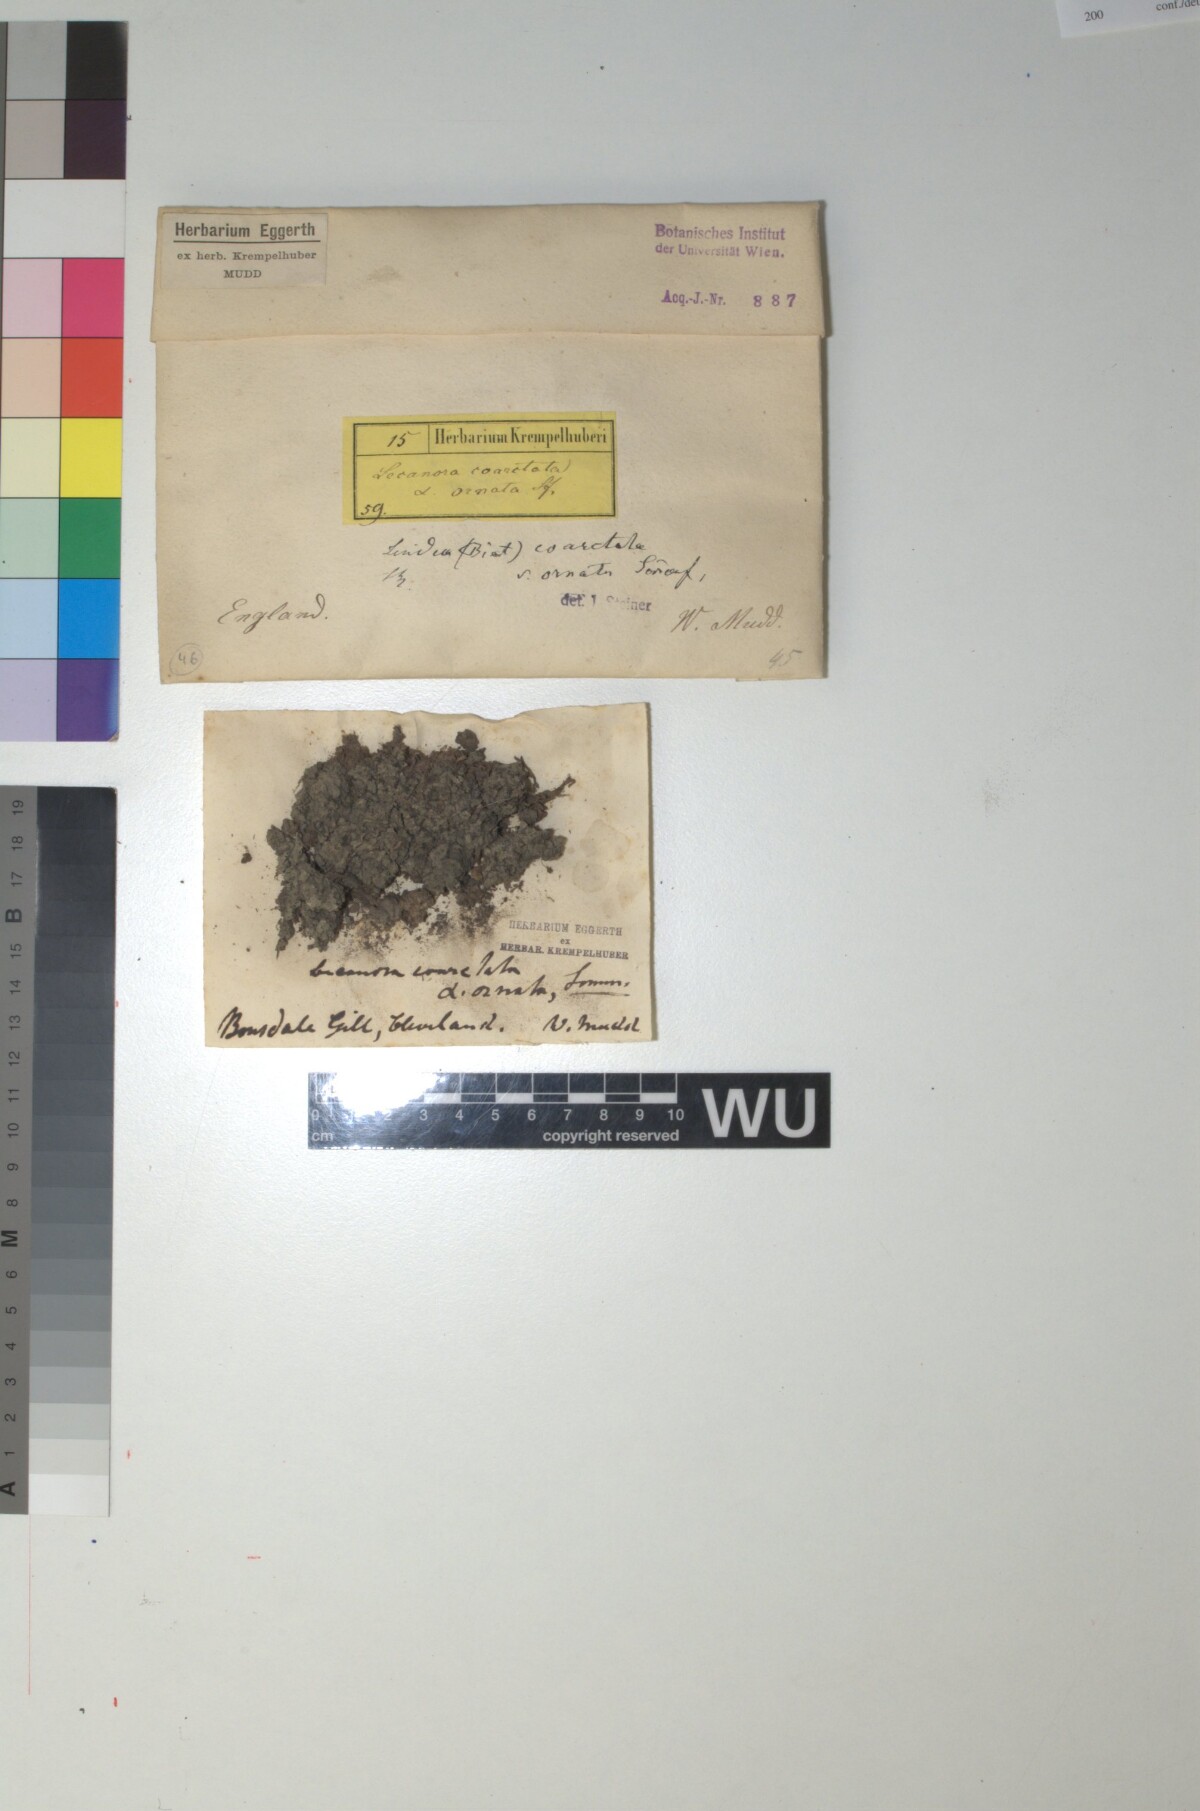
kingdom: Fungi
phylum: Ascomycota
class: Lecanoromycetes
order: Baeomycetales
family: Trapeliaceae
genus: Trapelia
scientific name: Trapelia coarctata
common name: White-edged stone lichen
